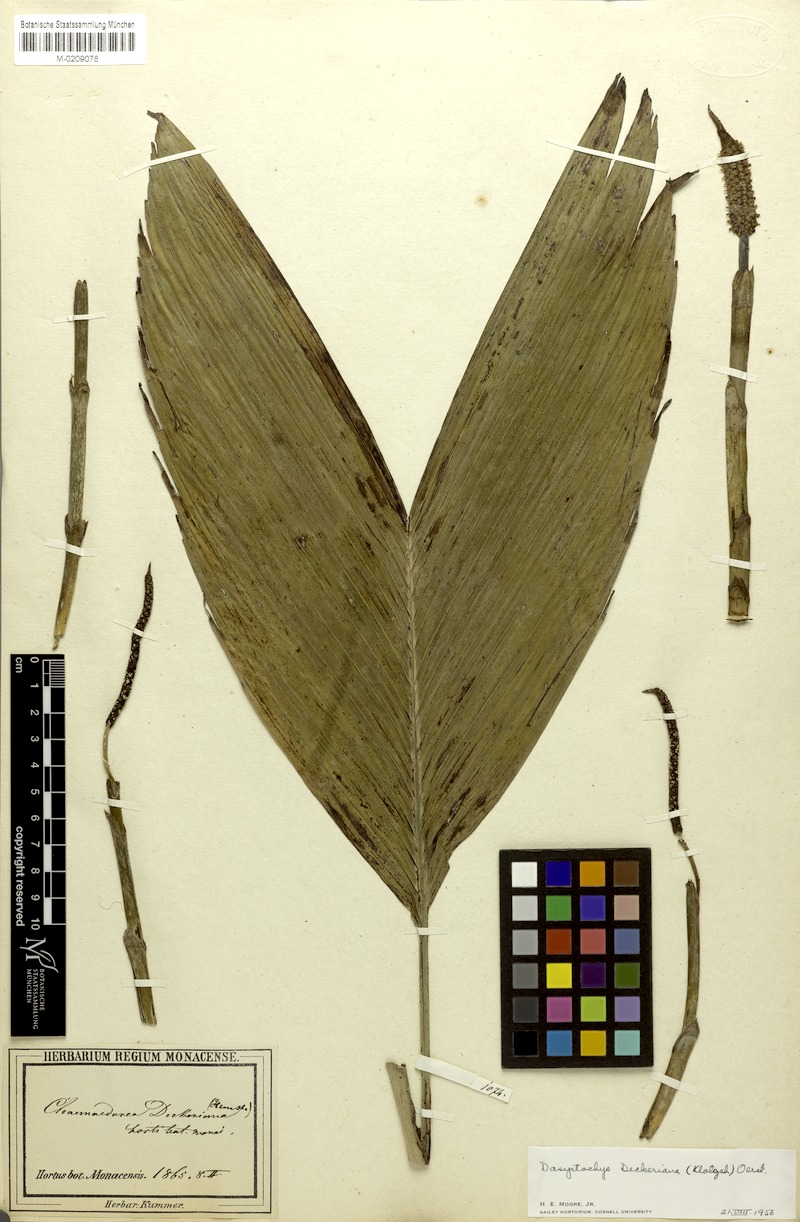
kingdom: Plantae
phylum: Tracheophyta
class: Liliopsida
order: Arecales
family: Arecaceae
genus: Chamaedorea
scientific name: Chamaedorea deckeriana
